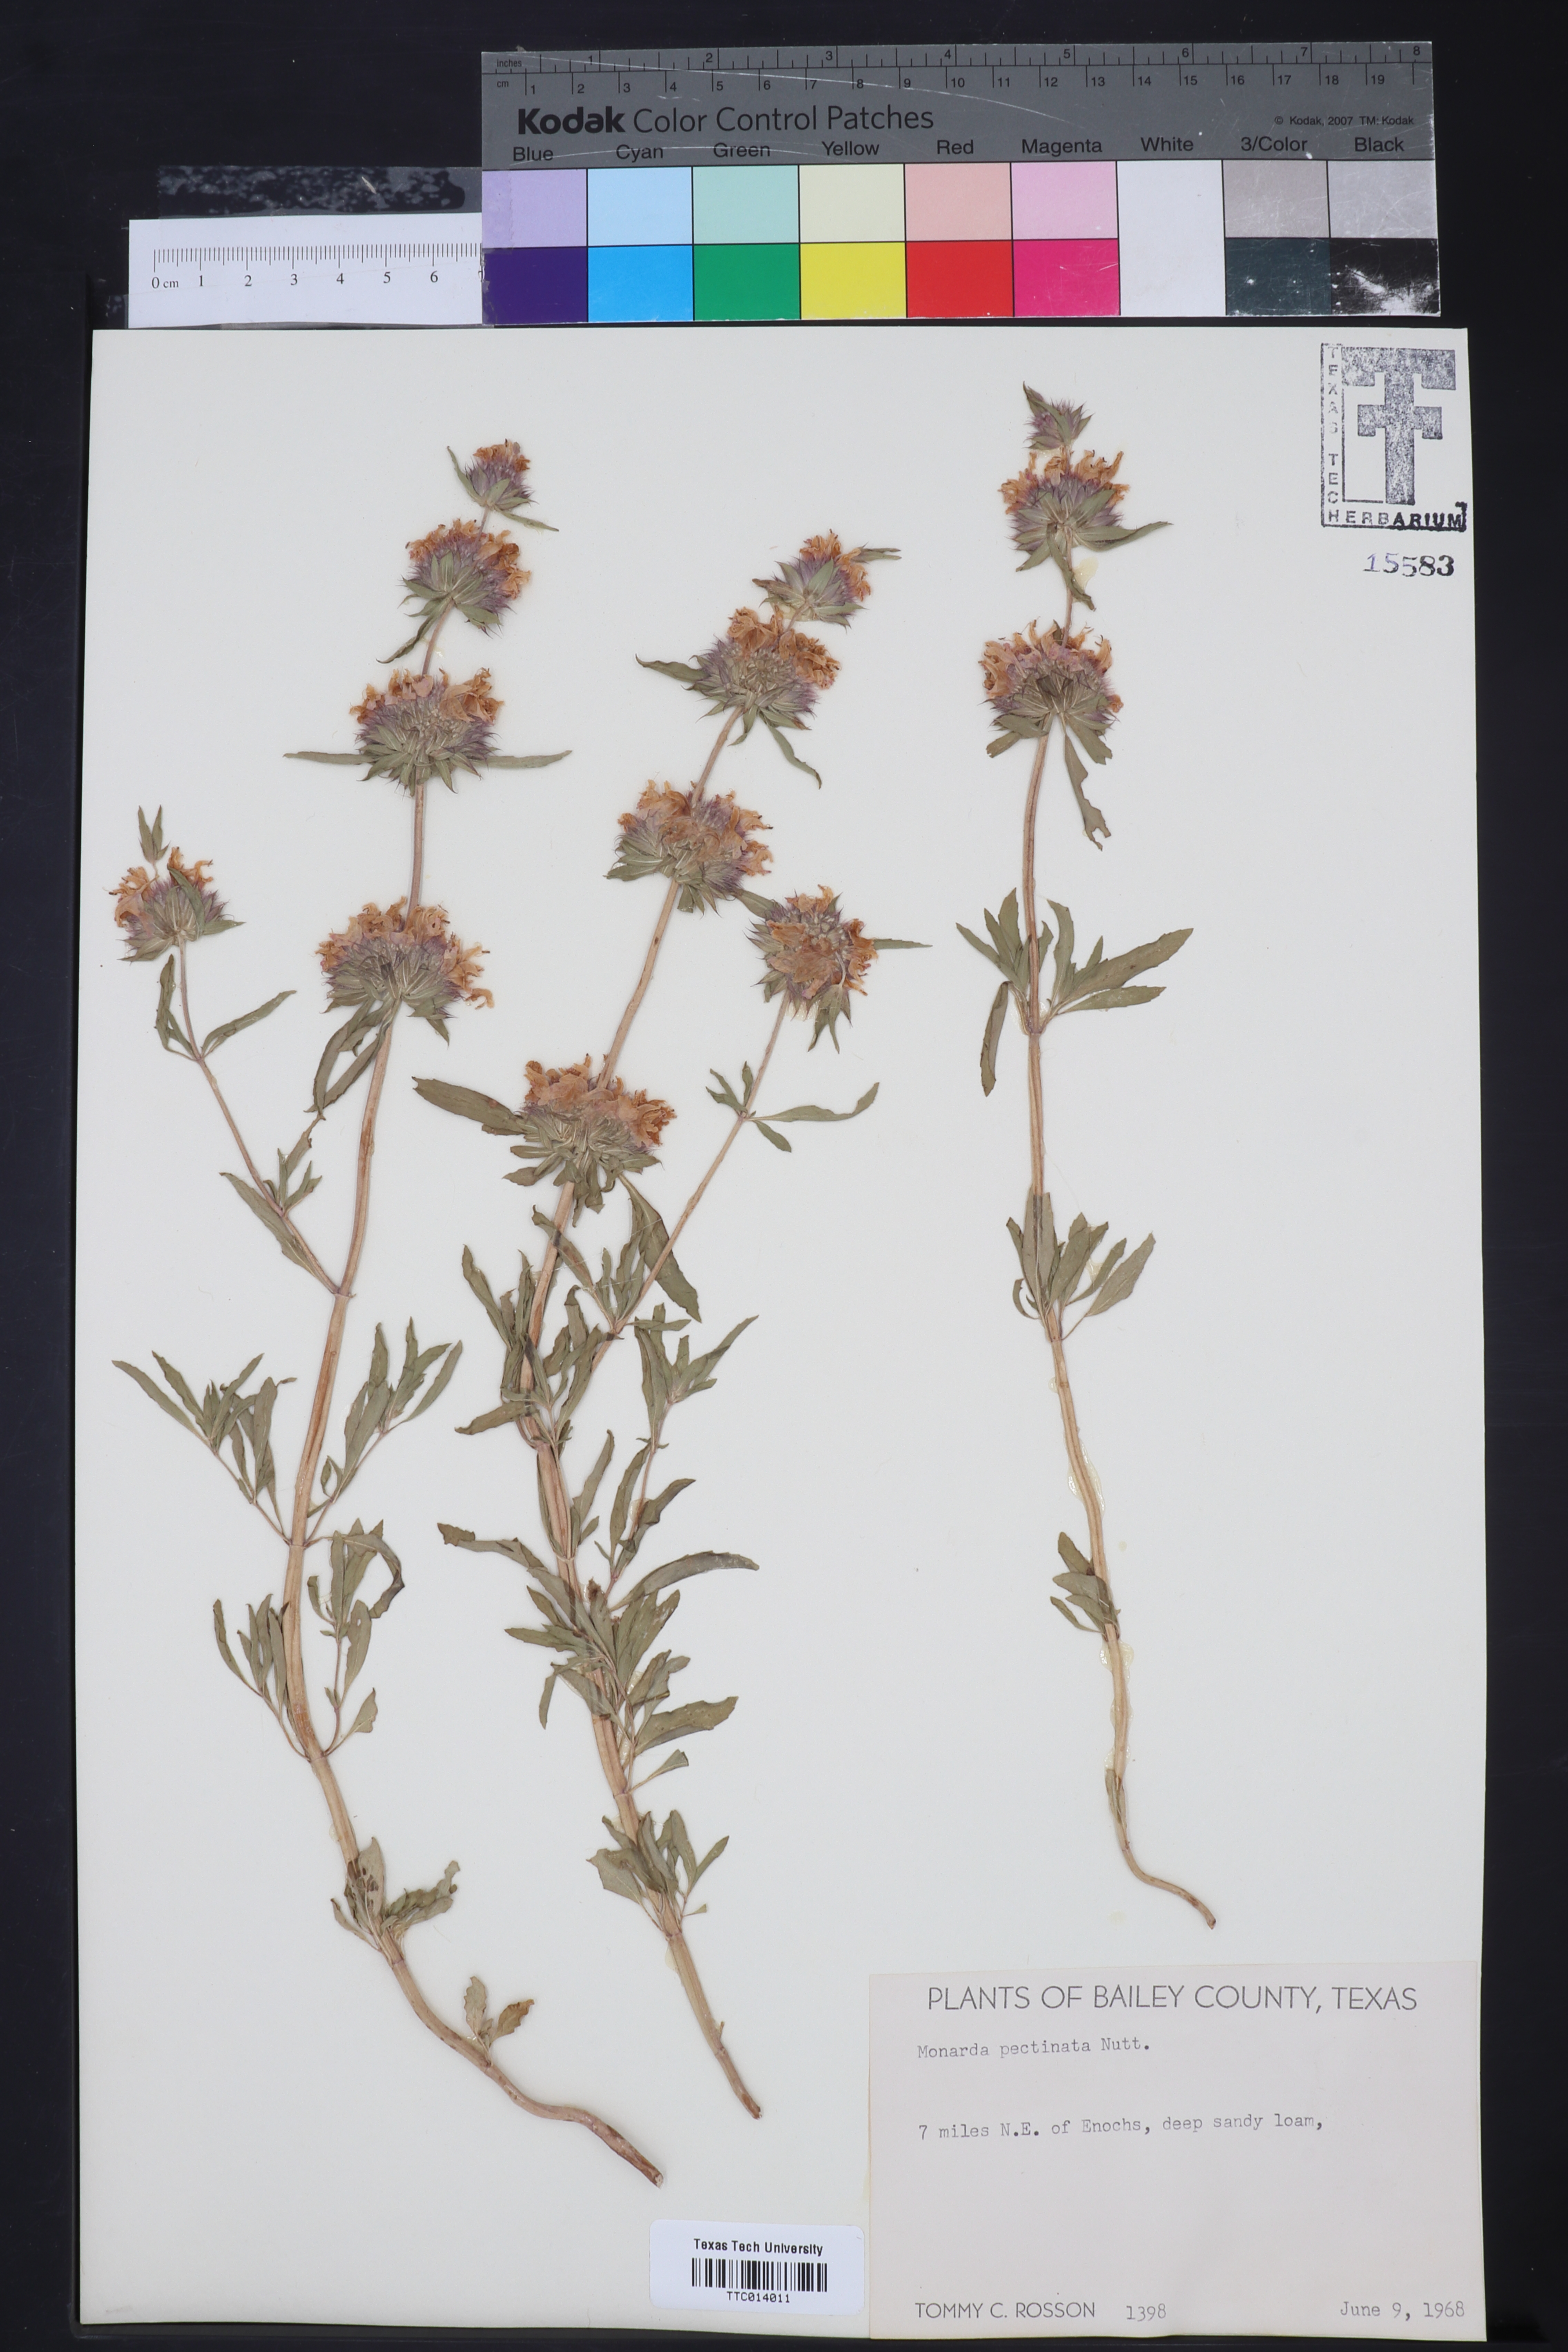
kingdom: Plantae
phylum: Tracheophyta
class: Magnoliopsida
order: Lamiales
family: Lamiaceae
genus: Monarda
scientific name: Monarda pectinata
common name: Plains beebalm
